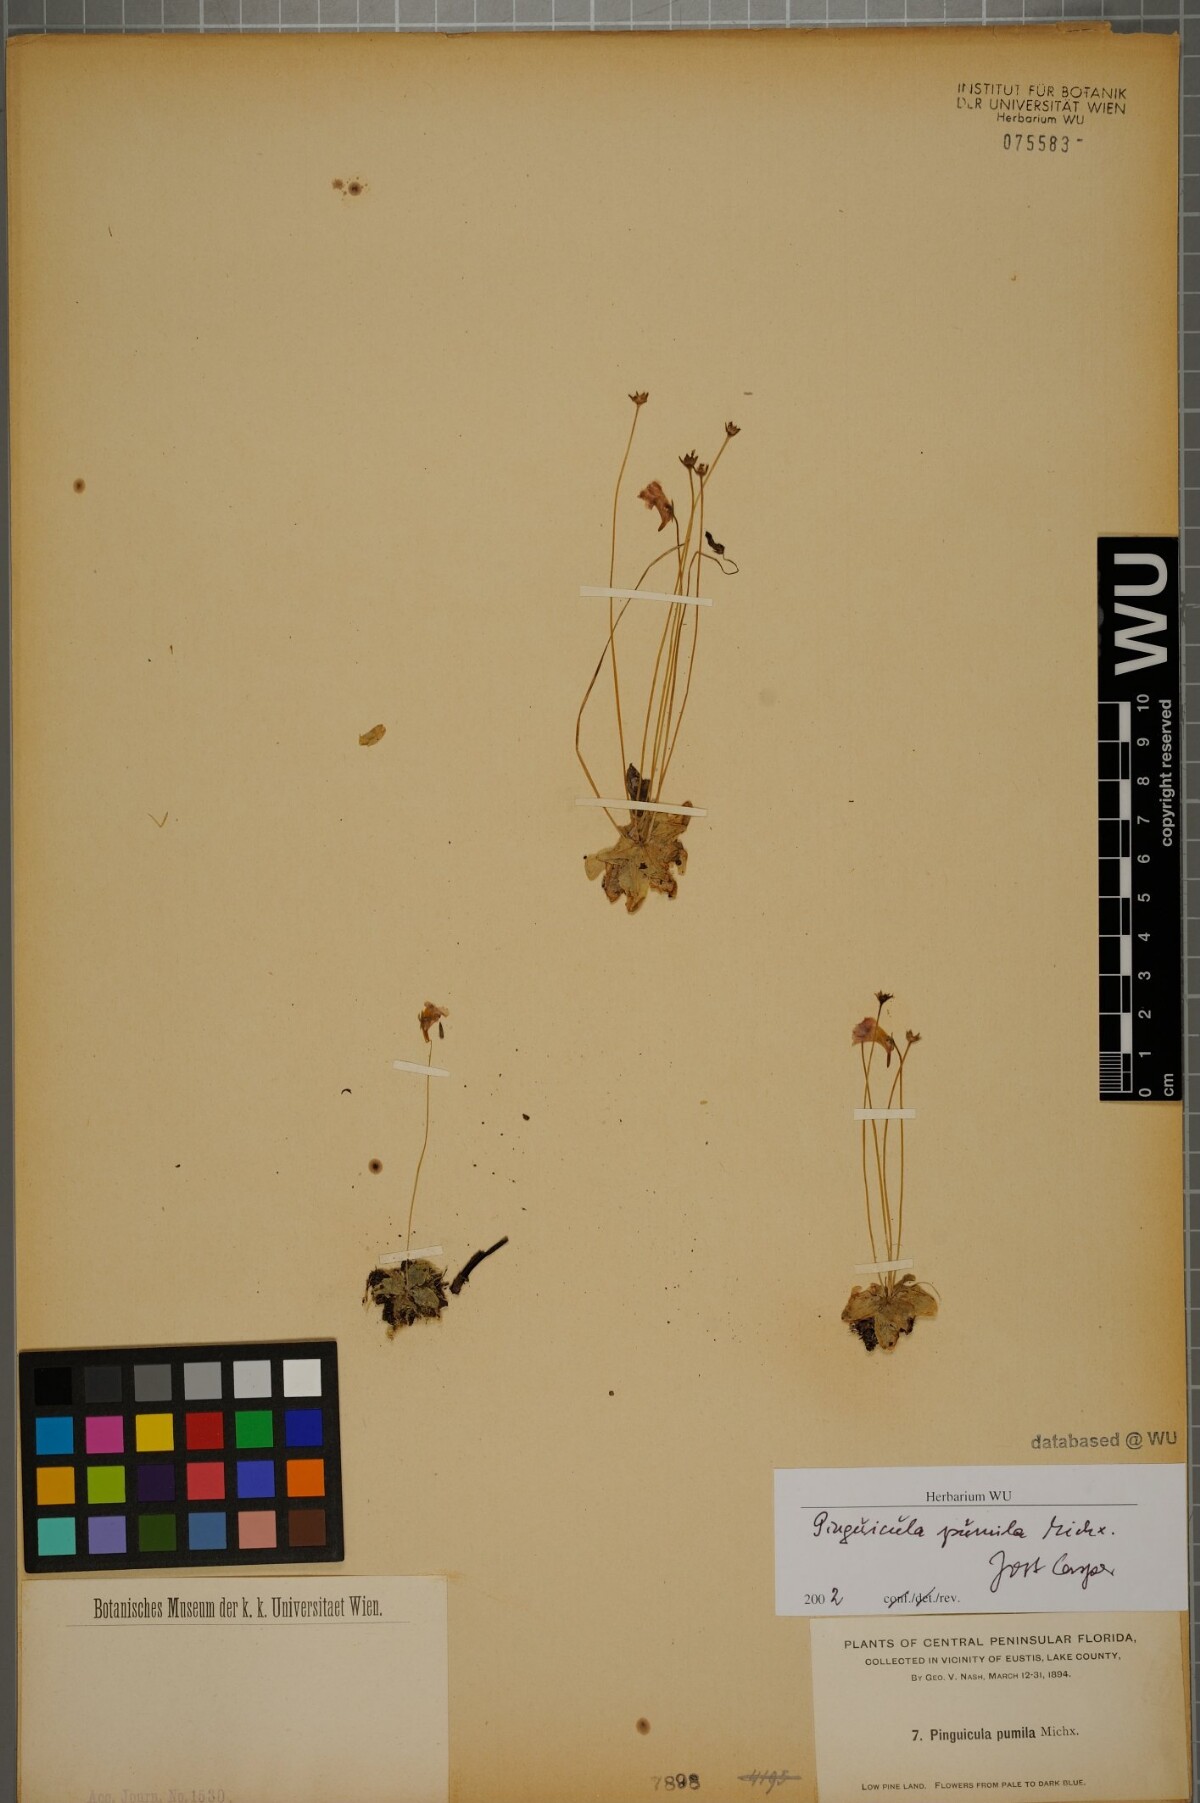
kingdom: Plantae
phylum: Tracheophyta
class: Magnoliopsida
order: Lamiales
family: Lentibulariaceae
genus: Pinguicula
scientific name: Pinguicula pumila
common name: Small butterwort
